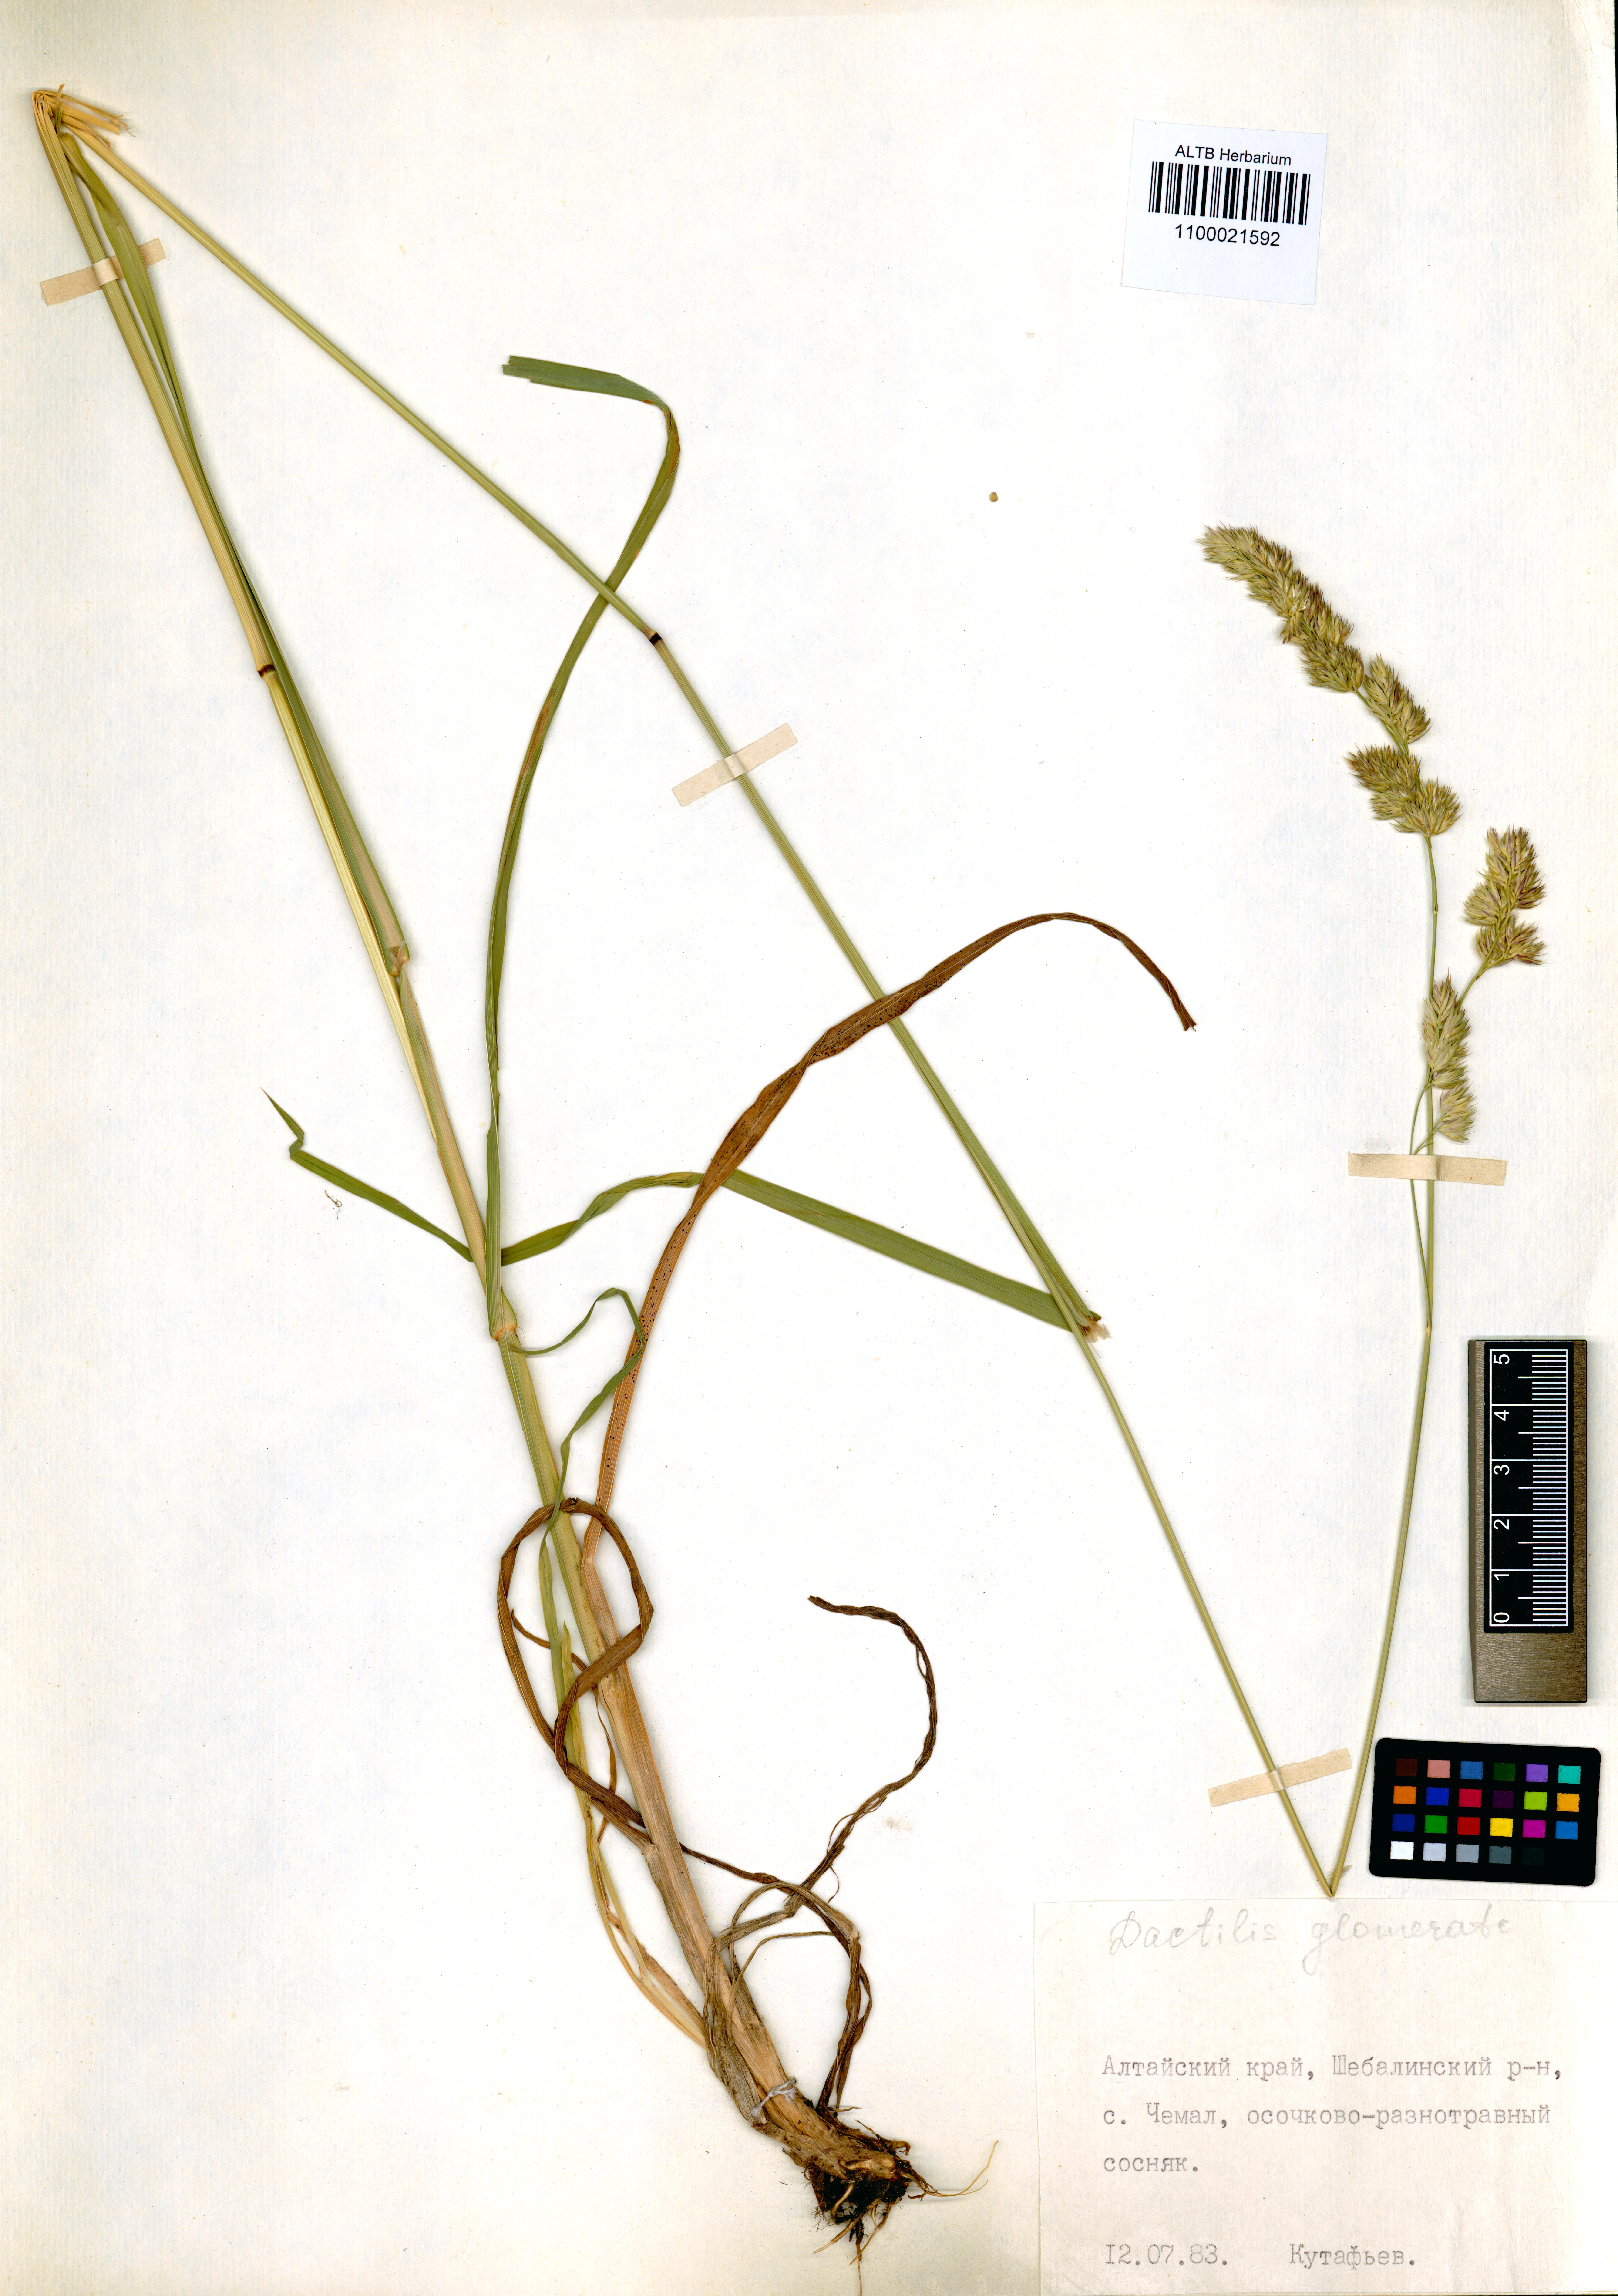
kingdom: Plantae
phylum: Tracheophyta
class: Liliopsida
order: Poales
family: Poaceae
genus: Dactylis
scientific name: Dactylis glomerata
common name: Orchardgrass
